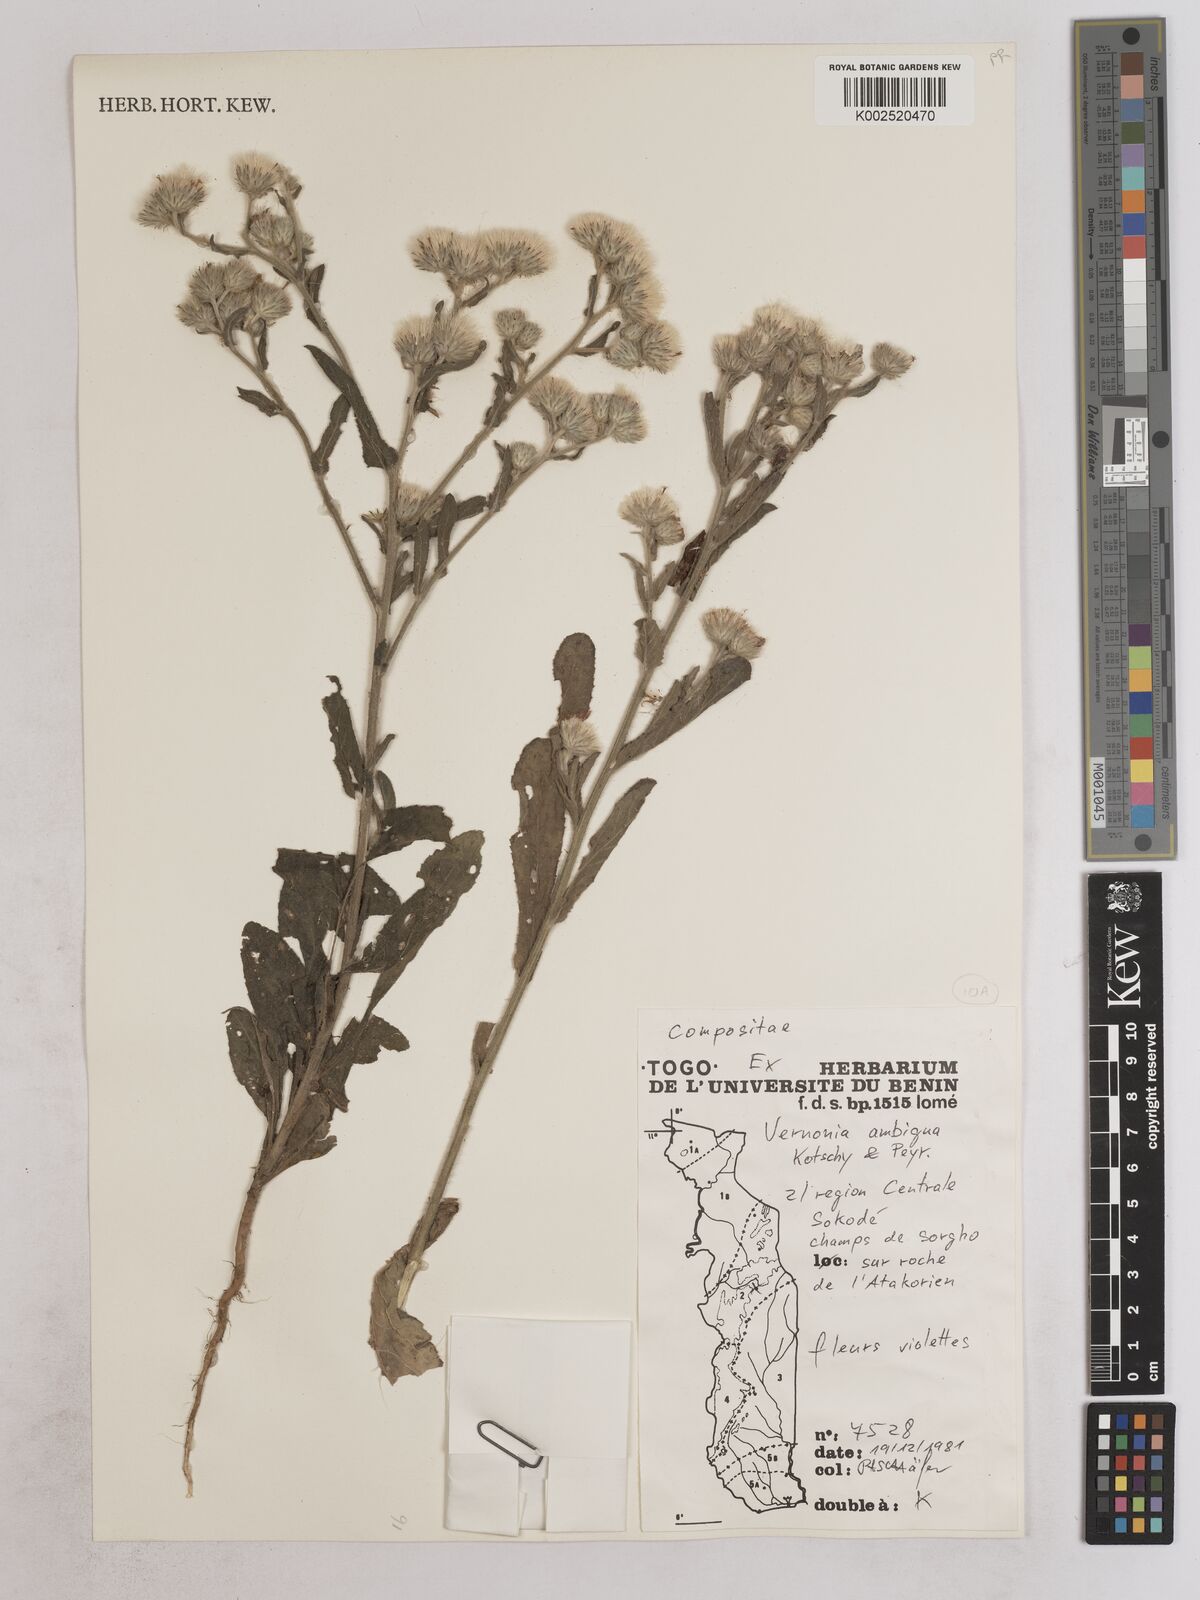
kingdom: Plantae
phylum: Tracheophyta
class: Magnoliopsida
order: Asterales
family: Asteraceae
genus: Vernoniastrum
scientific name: Vernoniastrum ambiguum
